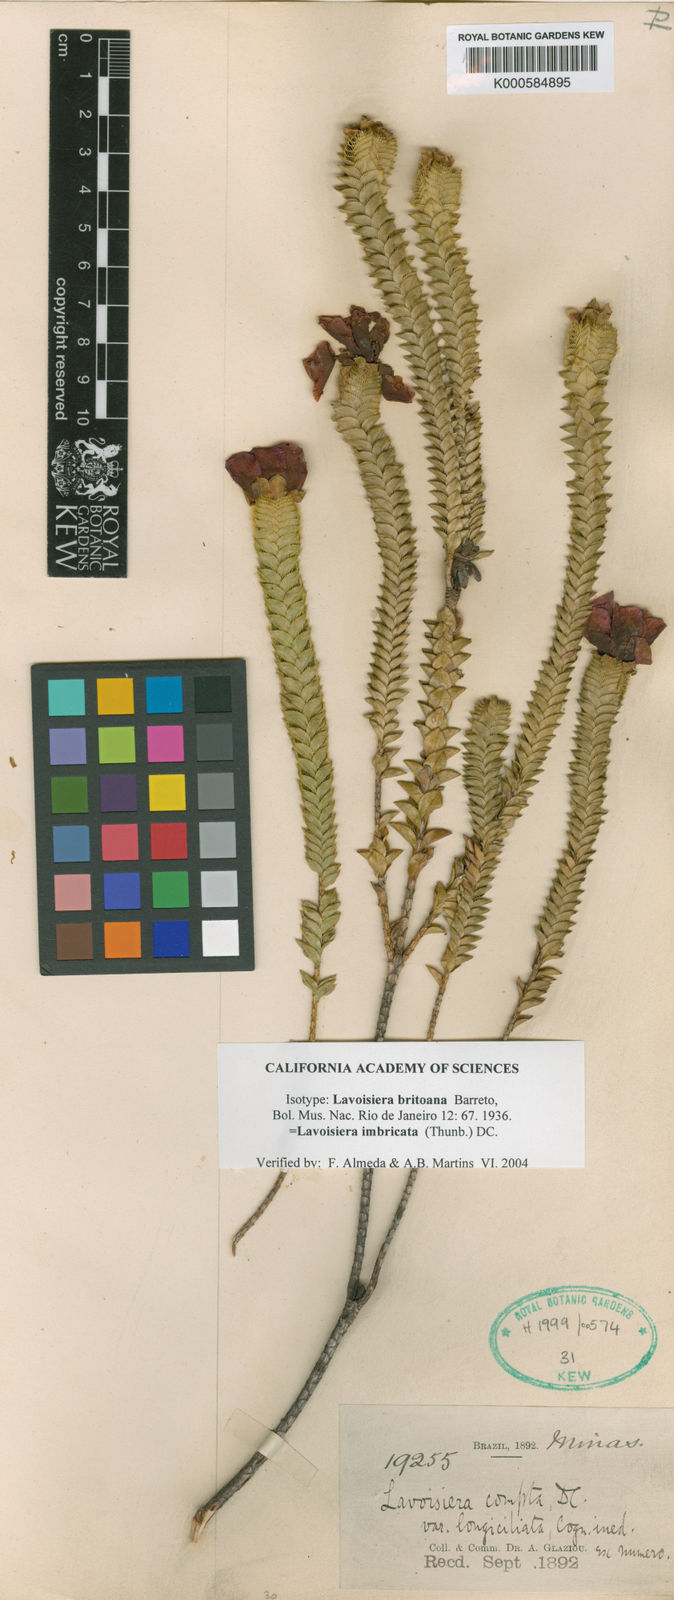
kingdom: Plantae
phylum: Tracheophyta
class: Magnoliopsida
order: Myrtales
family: Melastomataceae
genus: Microlicia
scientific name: Microlicia cataphracta
